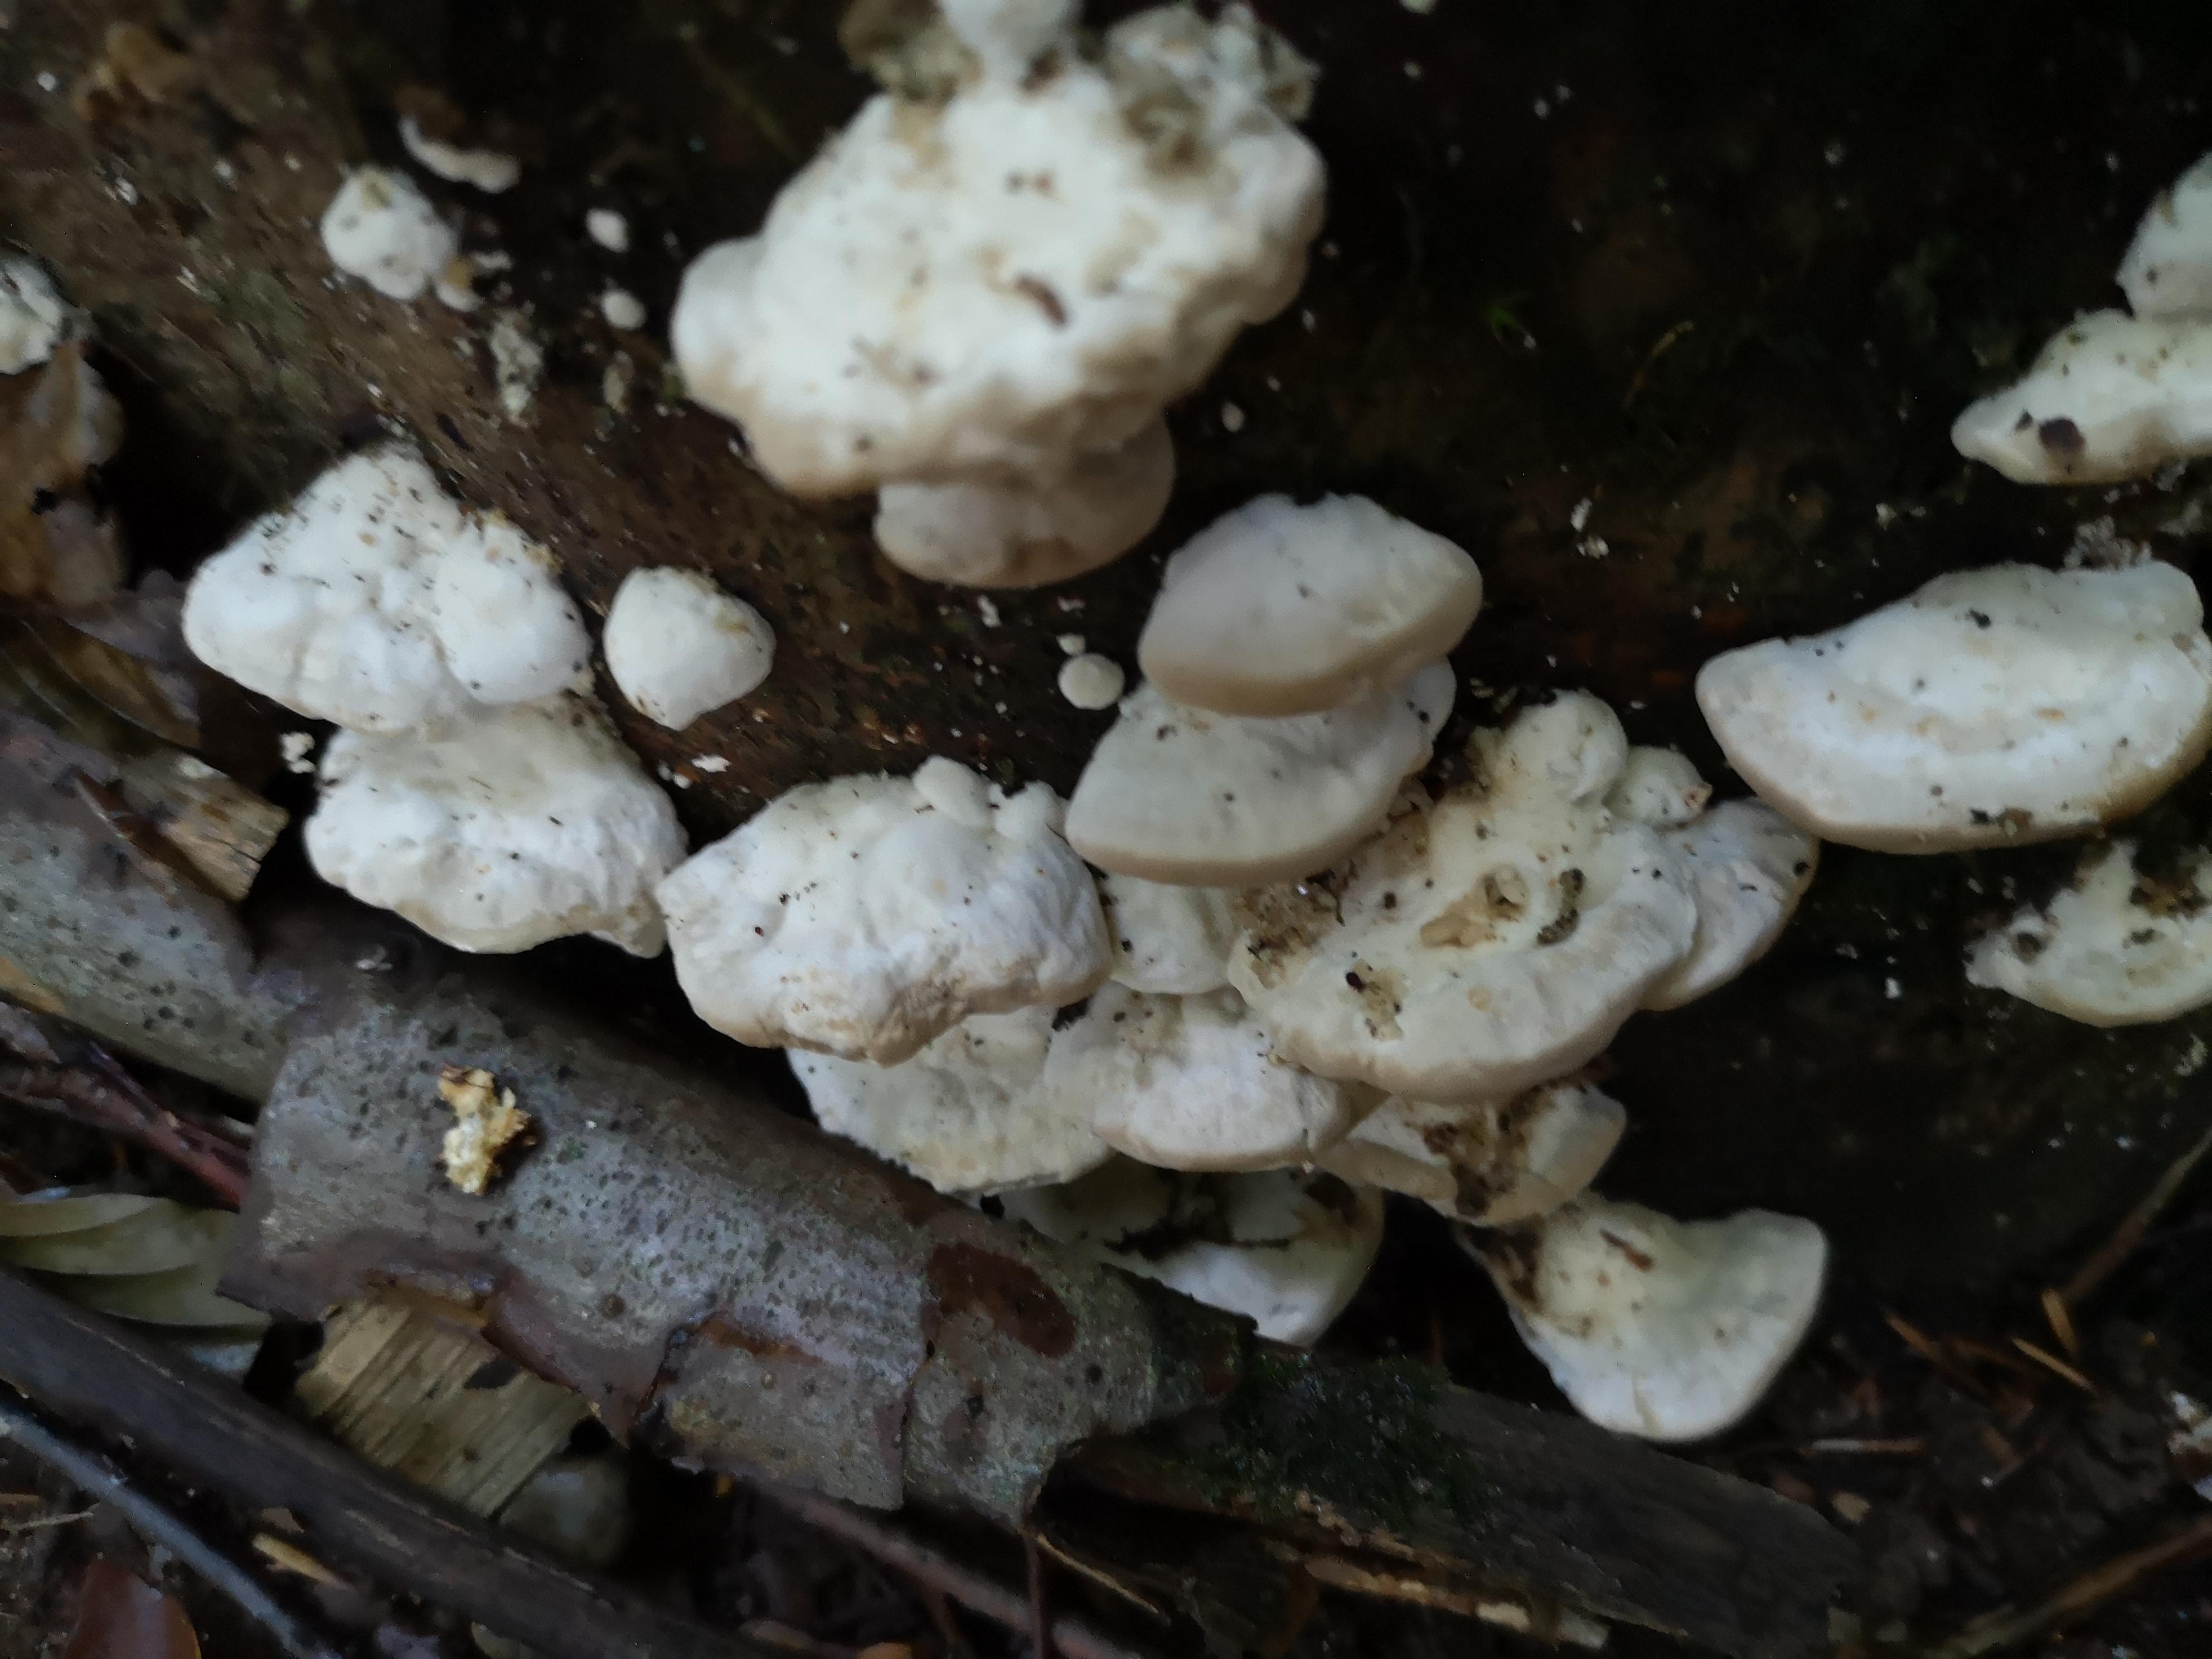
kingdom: Fungi
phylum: Basidiomycota
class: Agaricomycetes
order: Polyporales
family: Polyporaceae
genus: Trametes
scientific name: Trametes gibbosa
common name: puklet læderporesvamp
